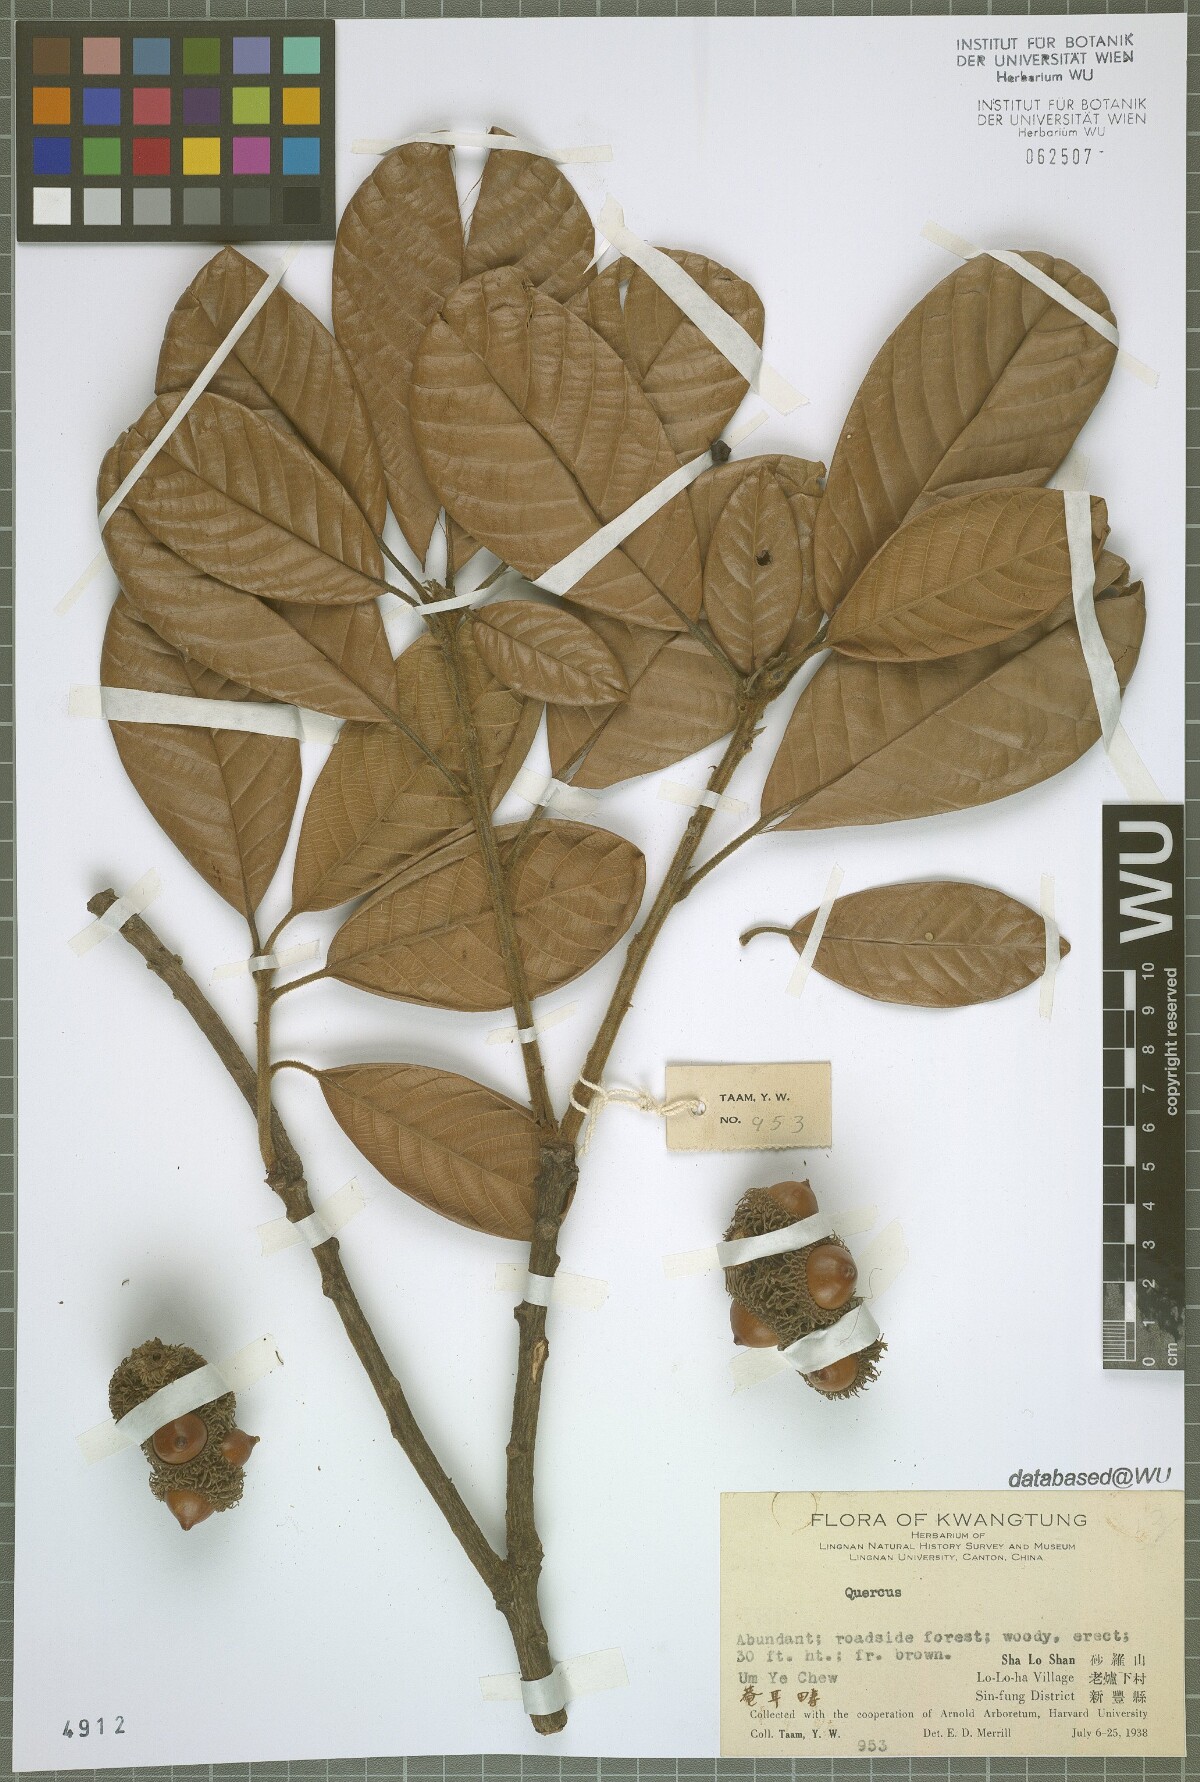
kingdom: Plantae
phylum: Tracheophyta
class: Magnoliopsida
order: Fagales
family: Fagaceae
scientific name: Fagaceae
